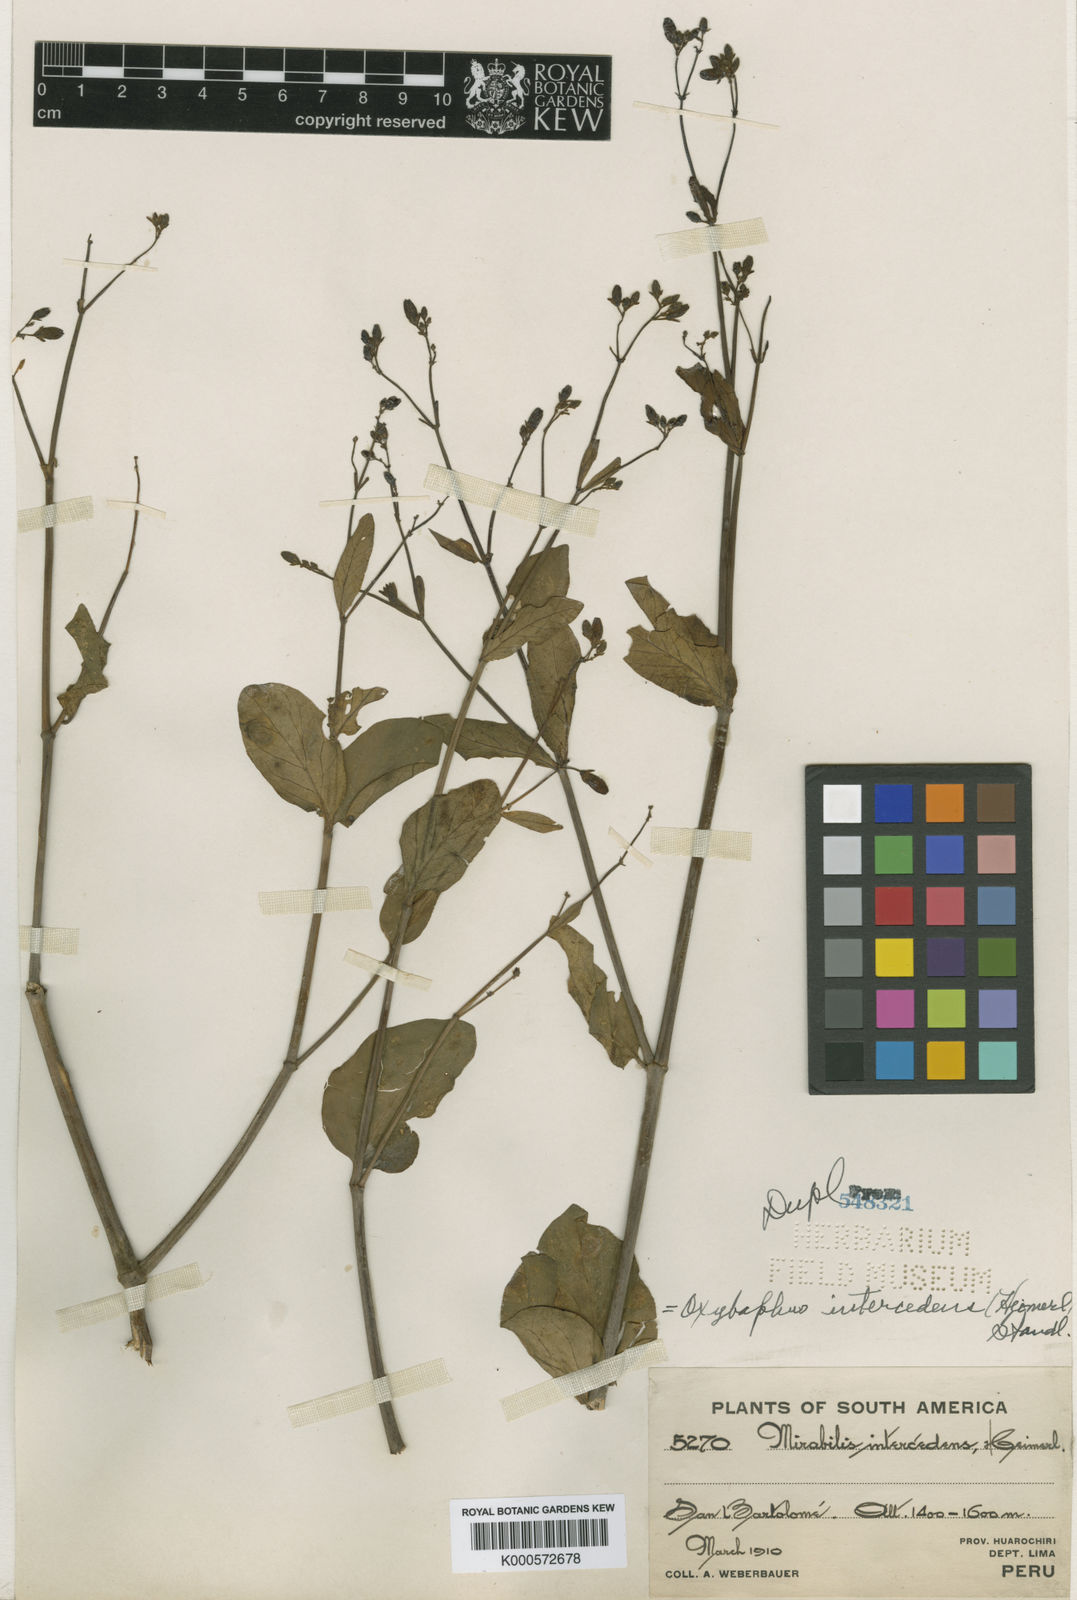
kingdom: Plantae
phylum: Tracheophyta
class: Magnoliopsida
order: Caryophyllales
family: Nyctaginaceae
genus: Mirabilis
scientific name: Mirabilis intercedens
